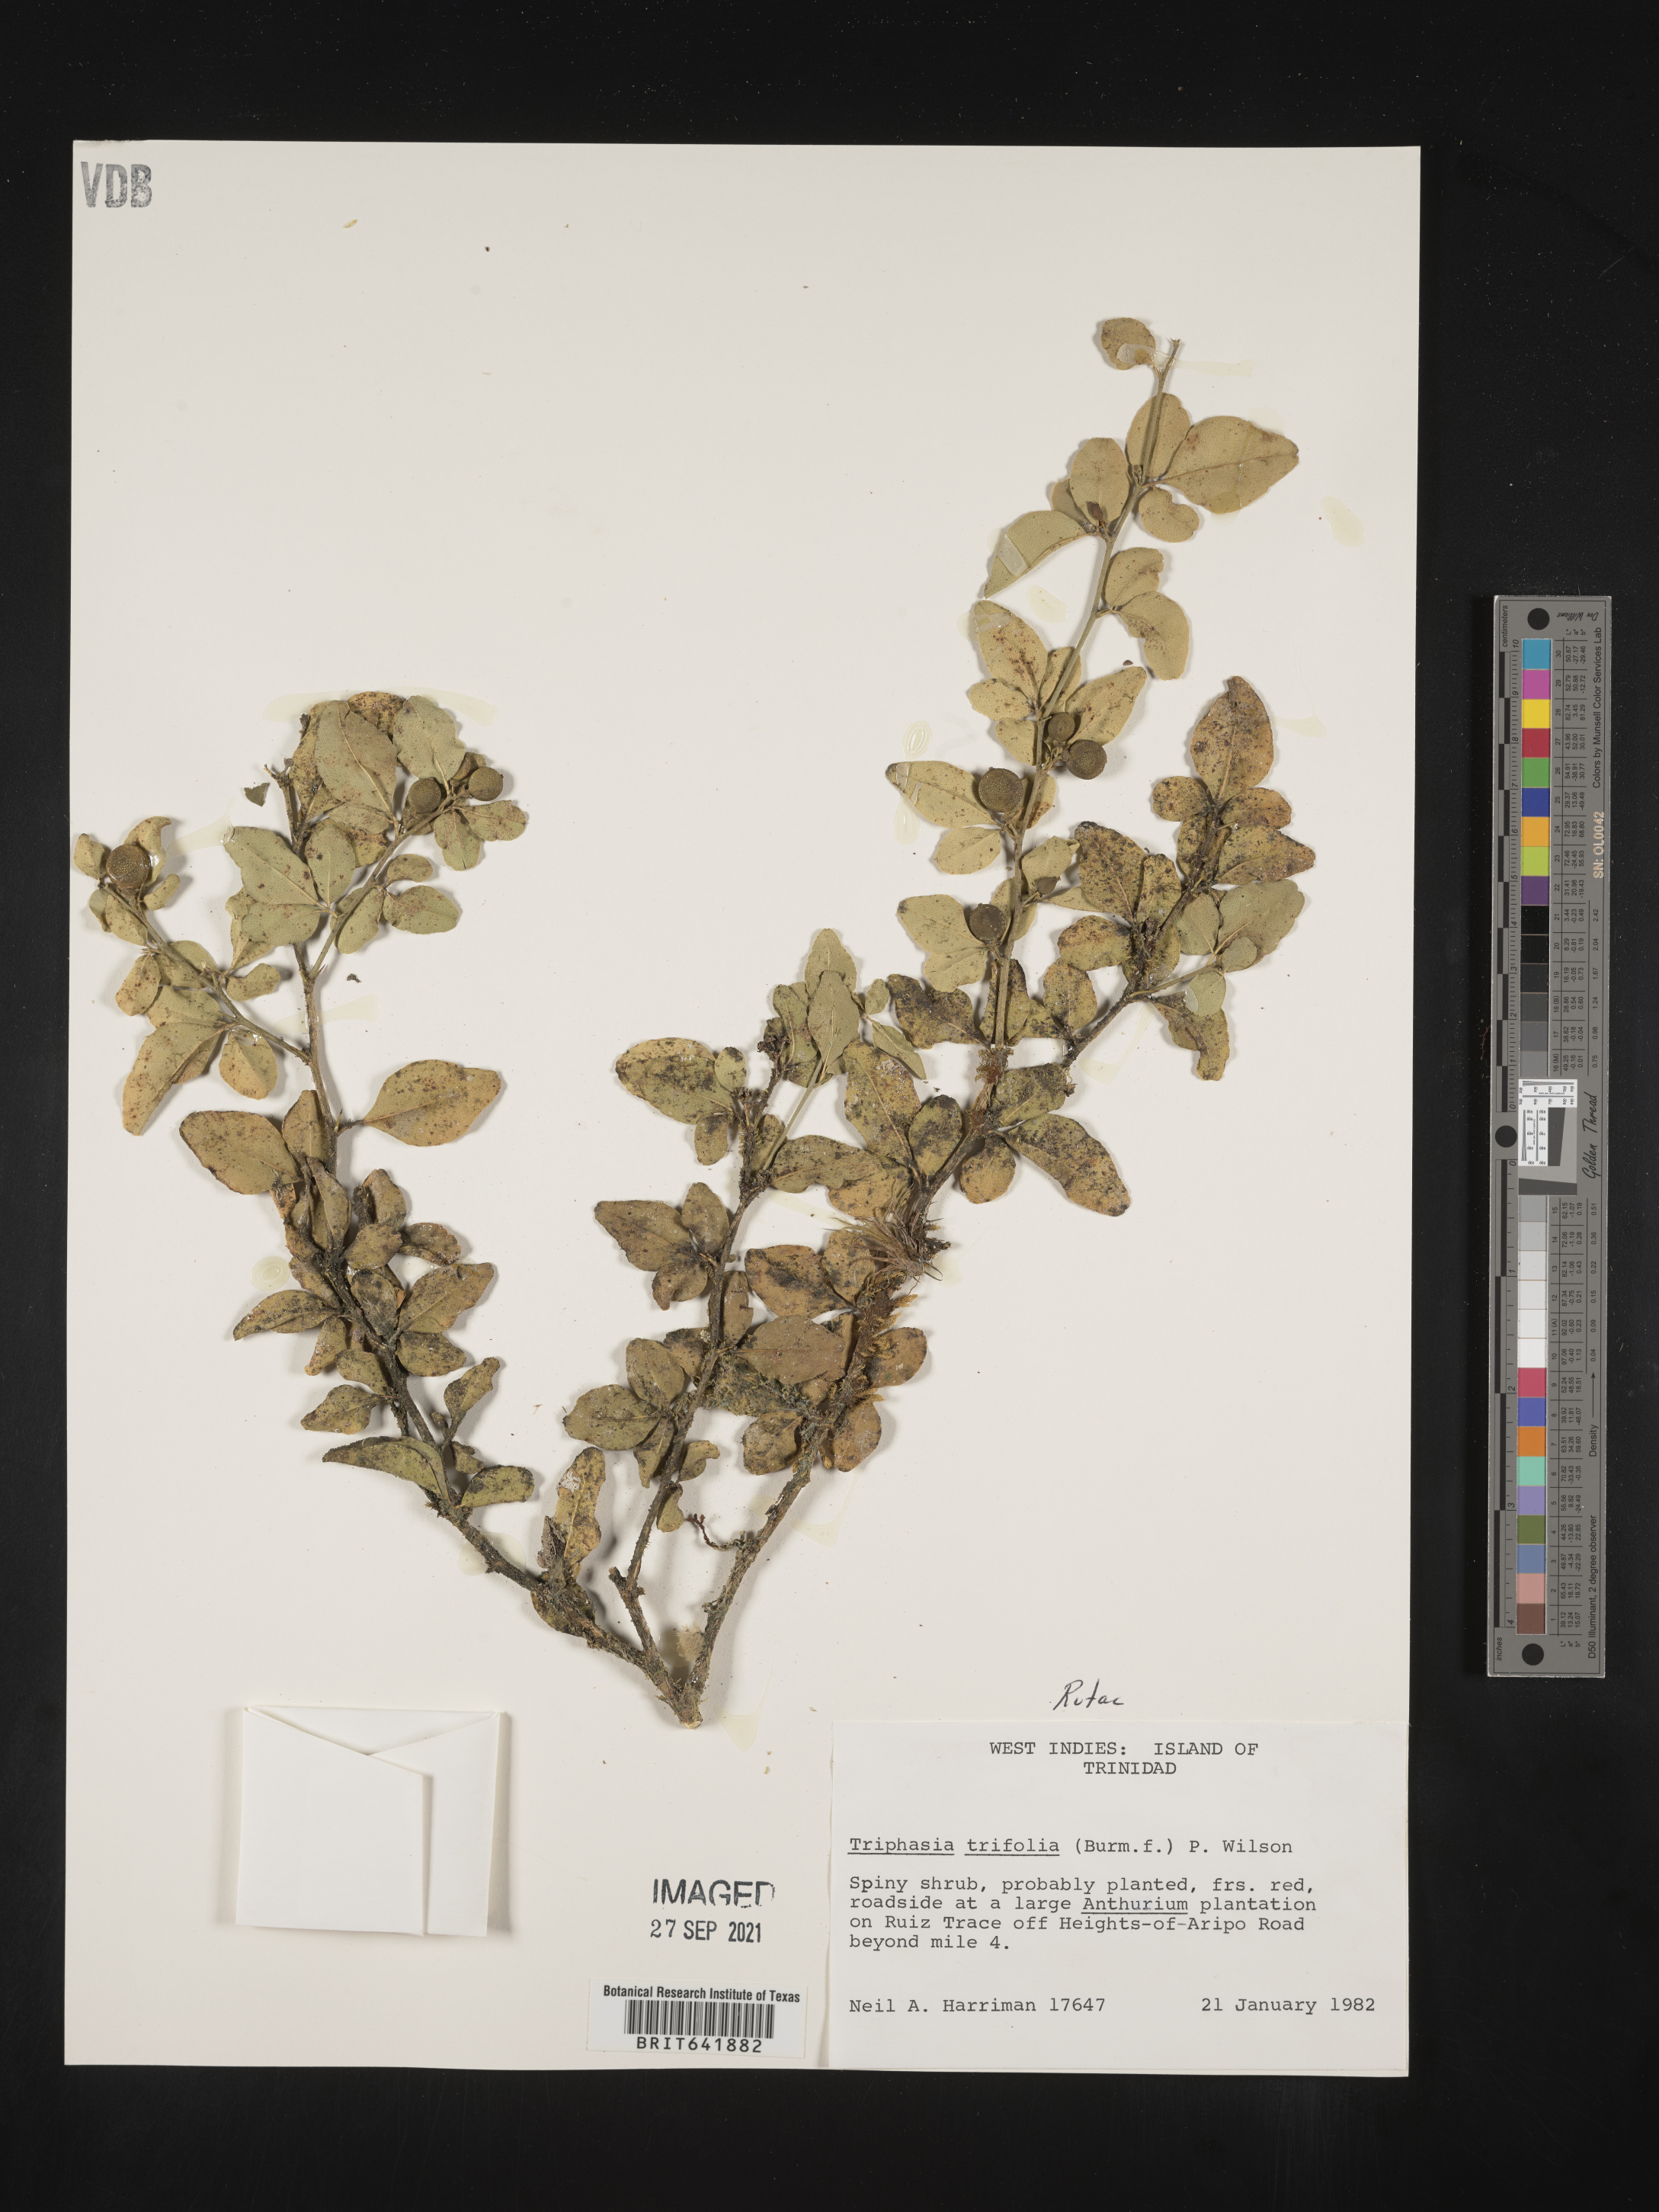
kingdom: Plantae
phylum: Tracheophyta
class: Magnoliopsida
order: Sapindales
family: Rutaceae
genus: Triphasia
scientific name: Triphasia trifolia
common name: Limeberry
